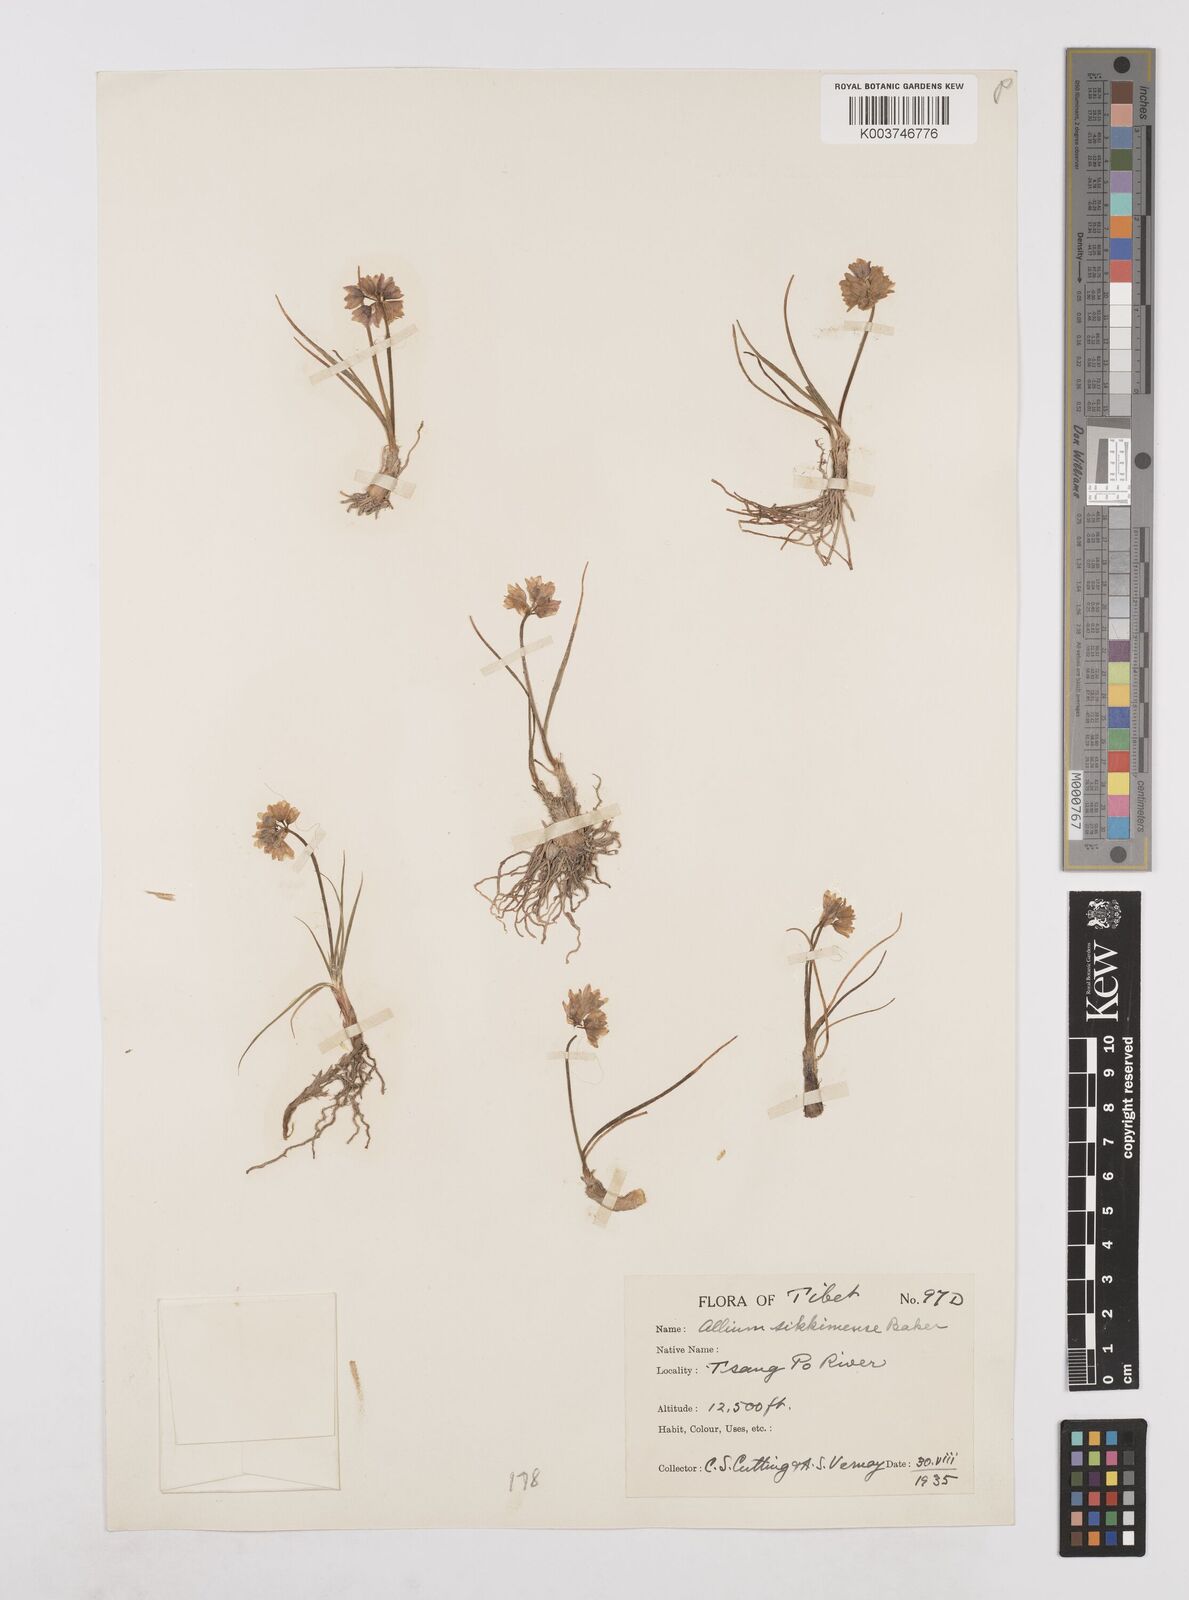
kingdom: Plantae
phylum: Tracheophyta
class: Liliopsida
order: Asparagales
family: Amaryllidaceae
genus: Allium
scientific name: Allium sikkimense
